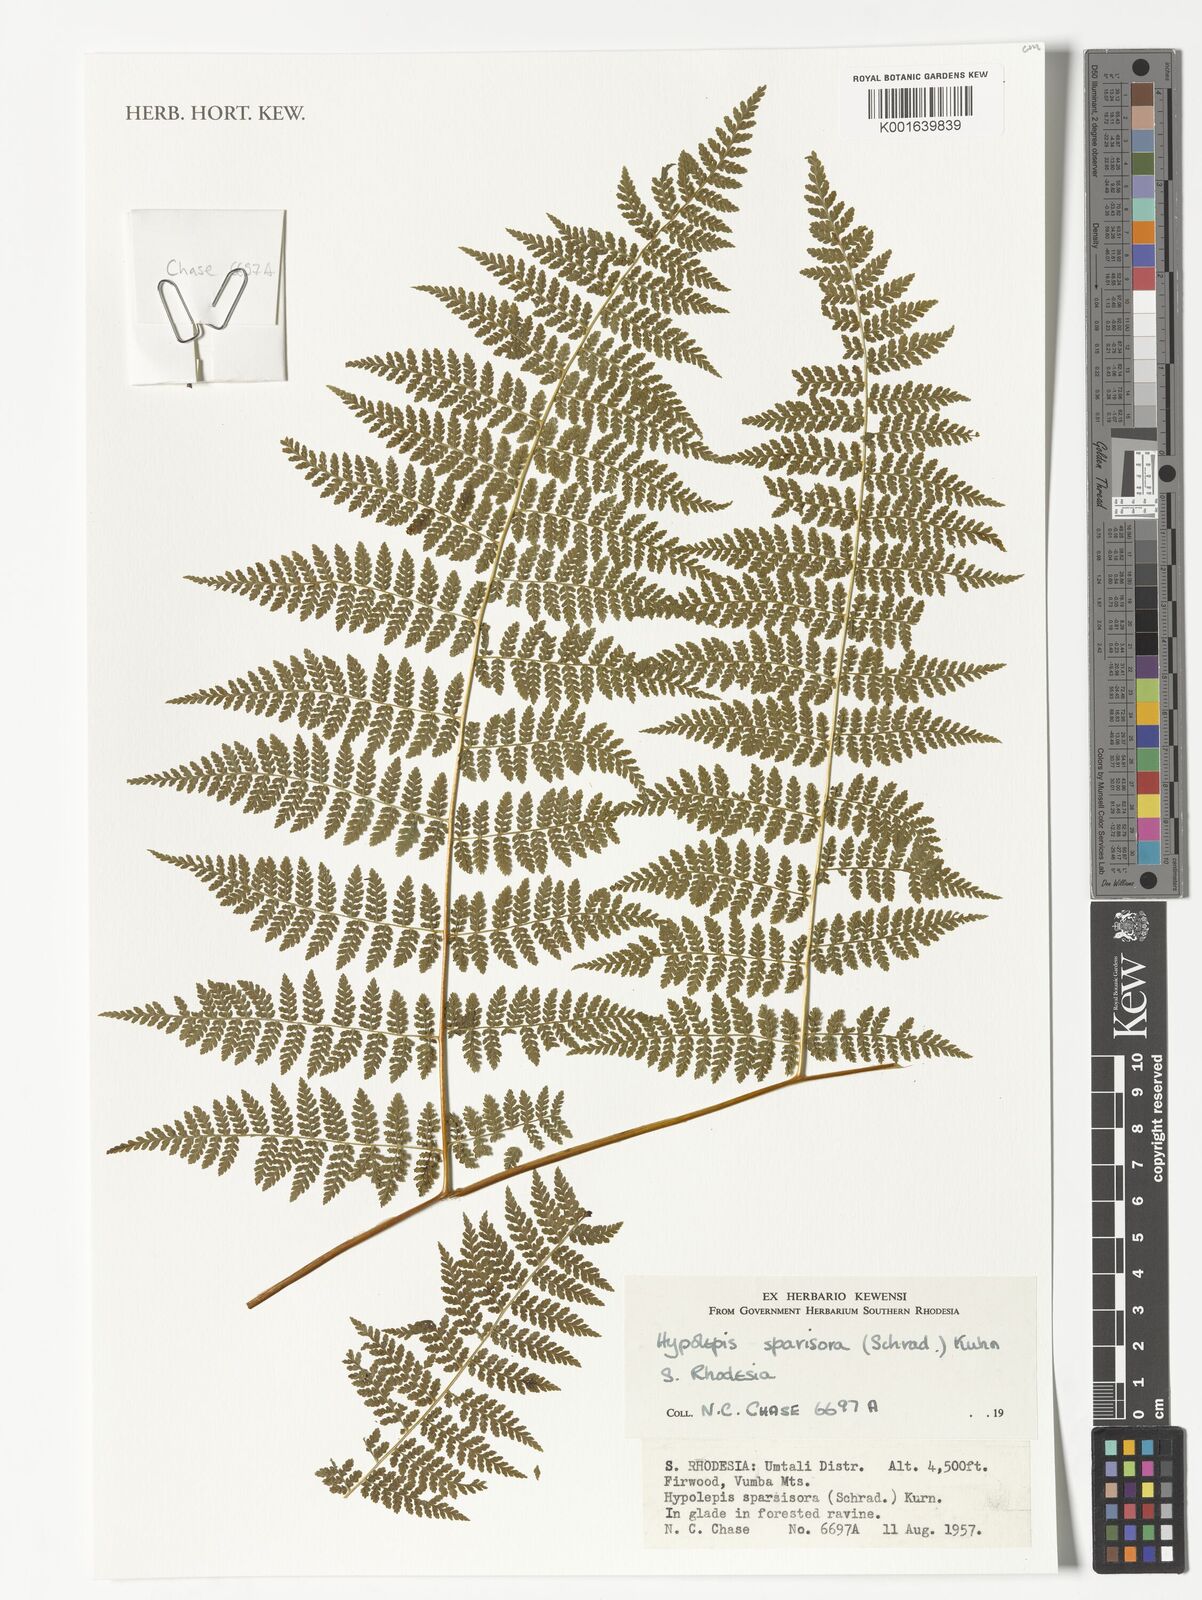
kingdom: Plantae
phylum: Tracheophyta
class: Polypodiopsida
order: Polypodiales
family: Dennstaedtiaceae
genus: Hypolepis
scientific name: Hypolepis sparsisora
